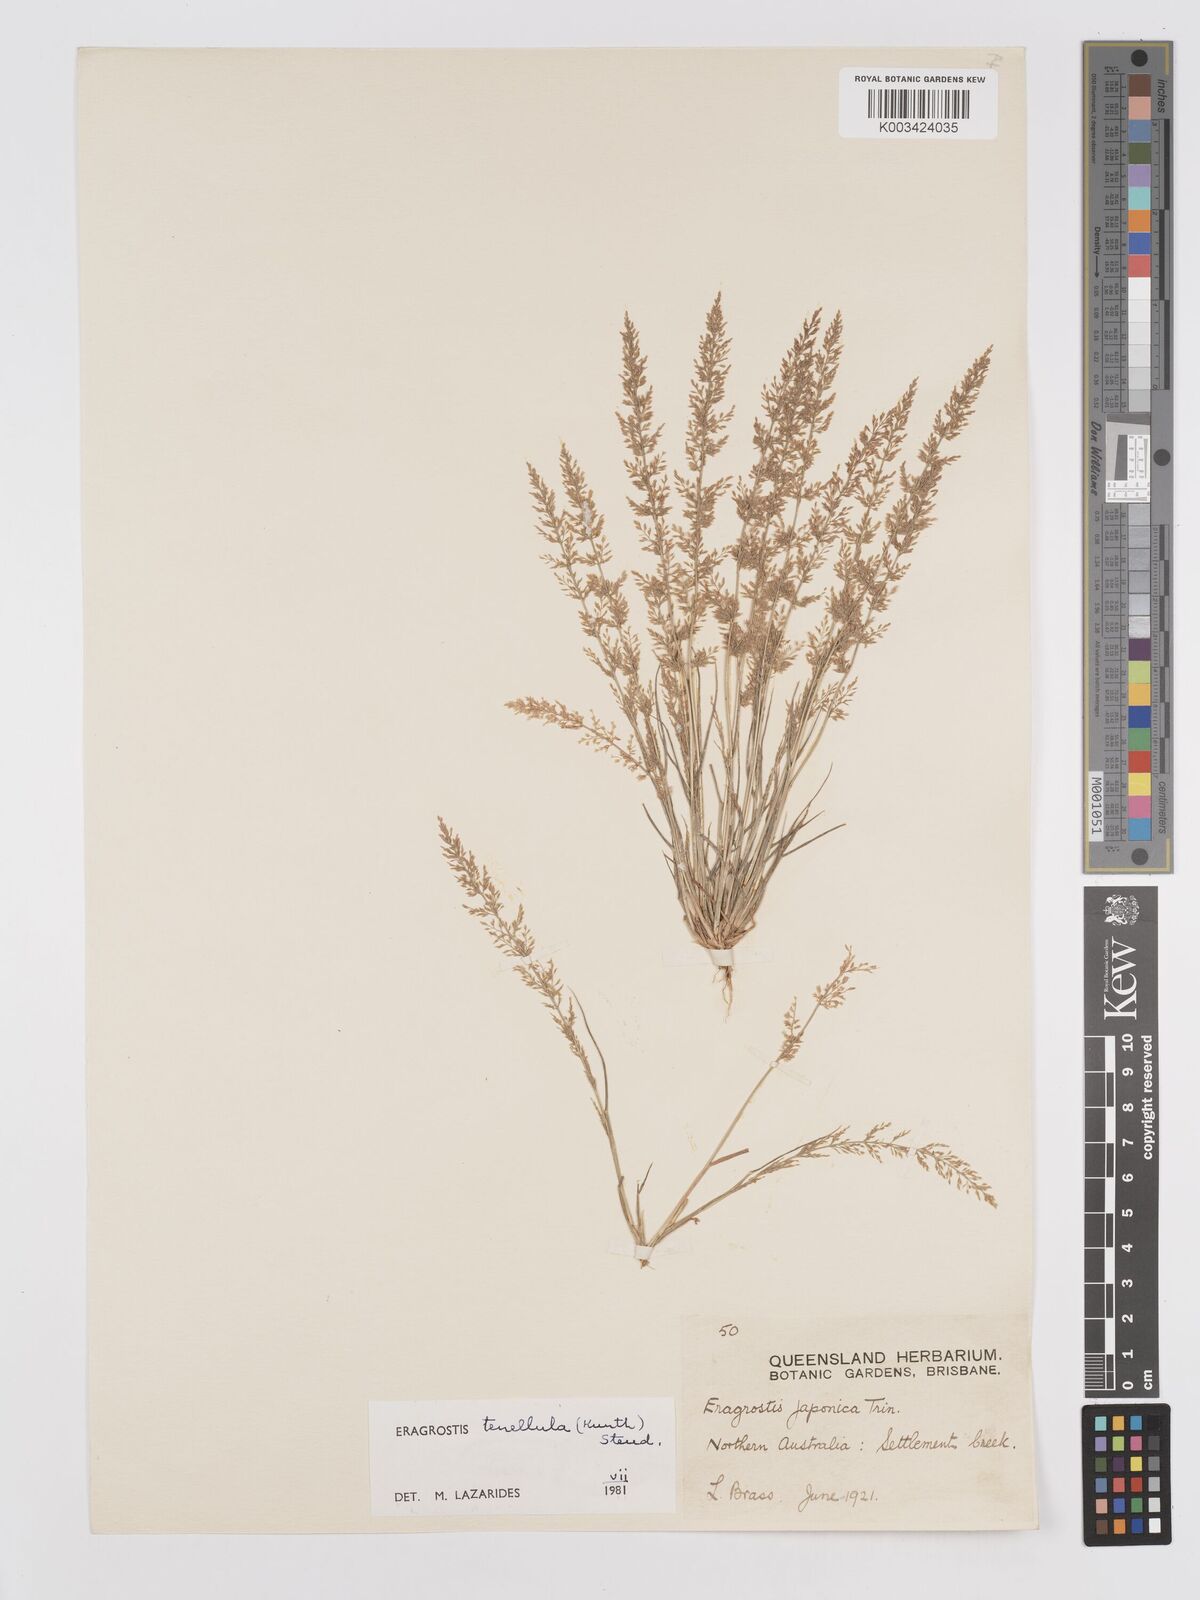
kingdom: Plantae
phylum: Tracheophyta
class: Liliopsida
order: Poales
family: Poaceae
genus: Eragrostis
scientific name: Eragrostis tenellula
